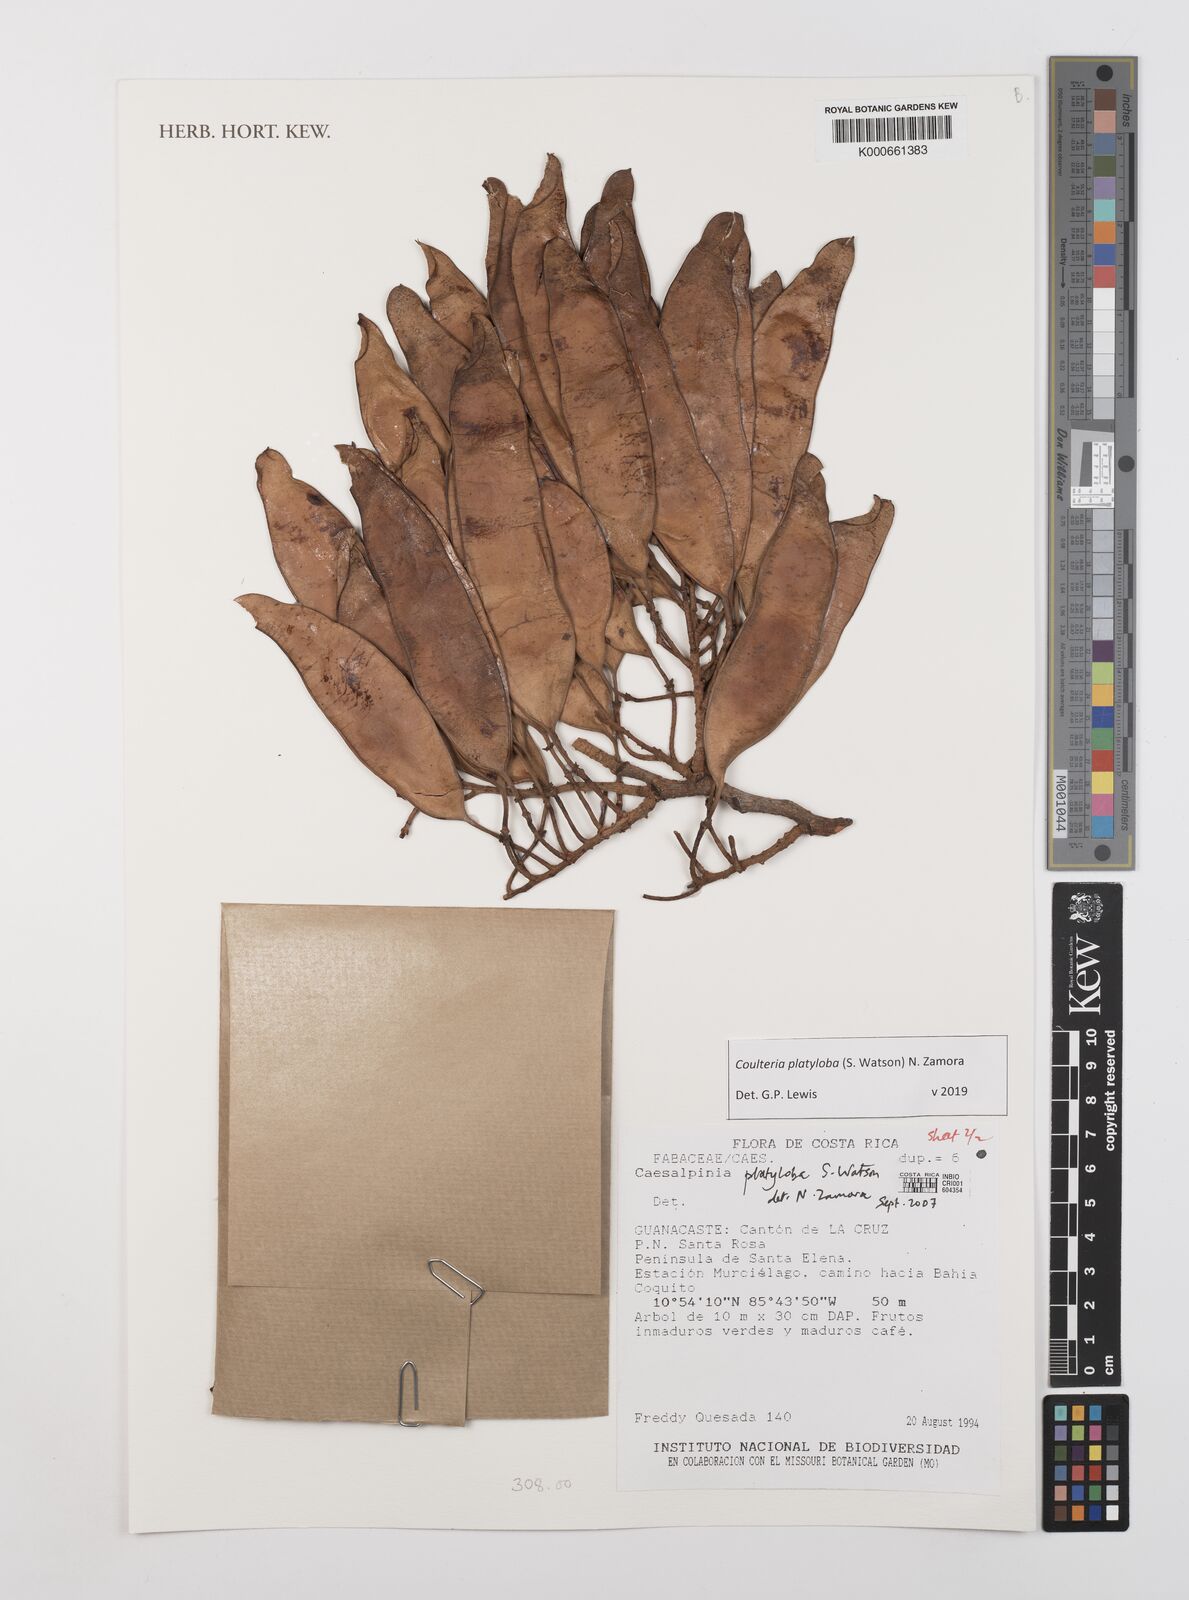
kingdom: Plantae
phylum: Tracheophyta
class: Magnoliopsida
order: Fabales
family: Fabaceae
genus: Coulteria
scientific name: Coulteria platyloba
